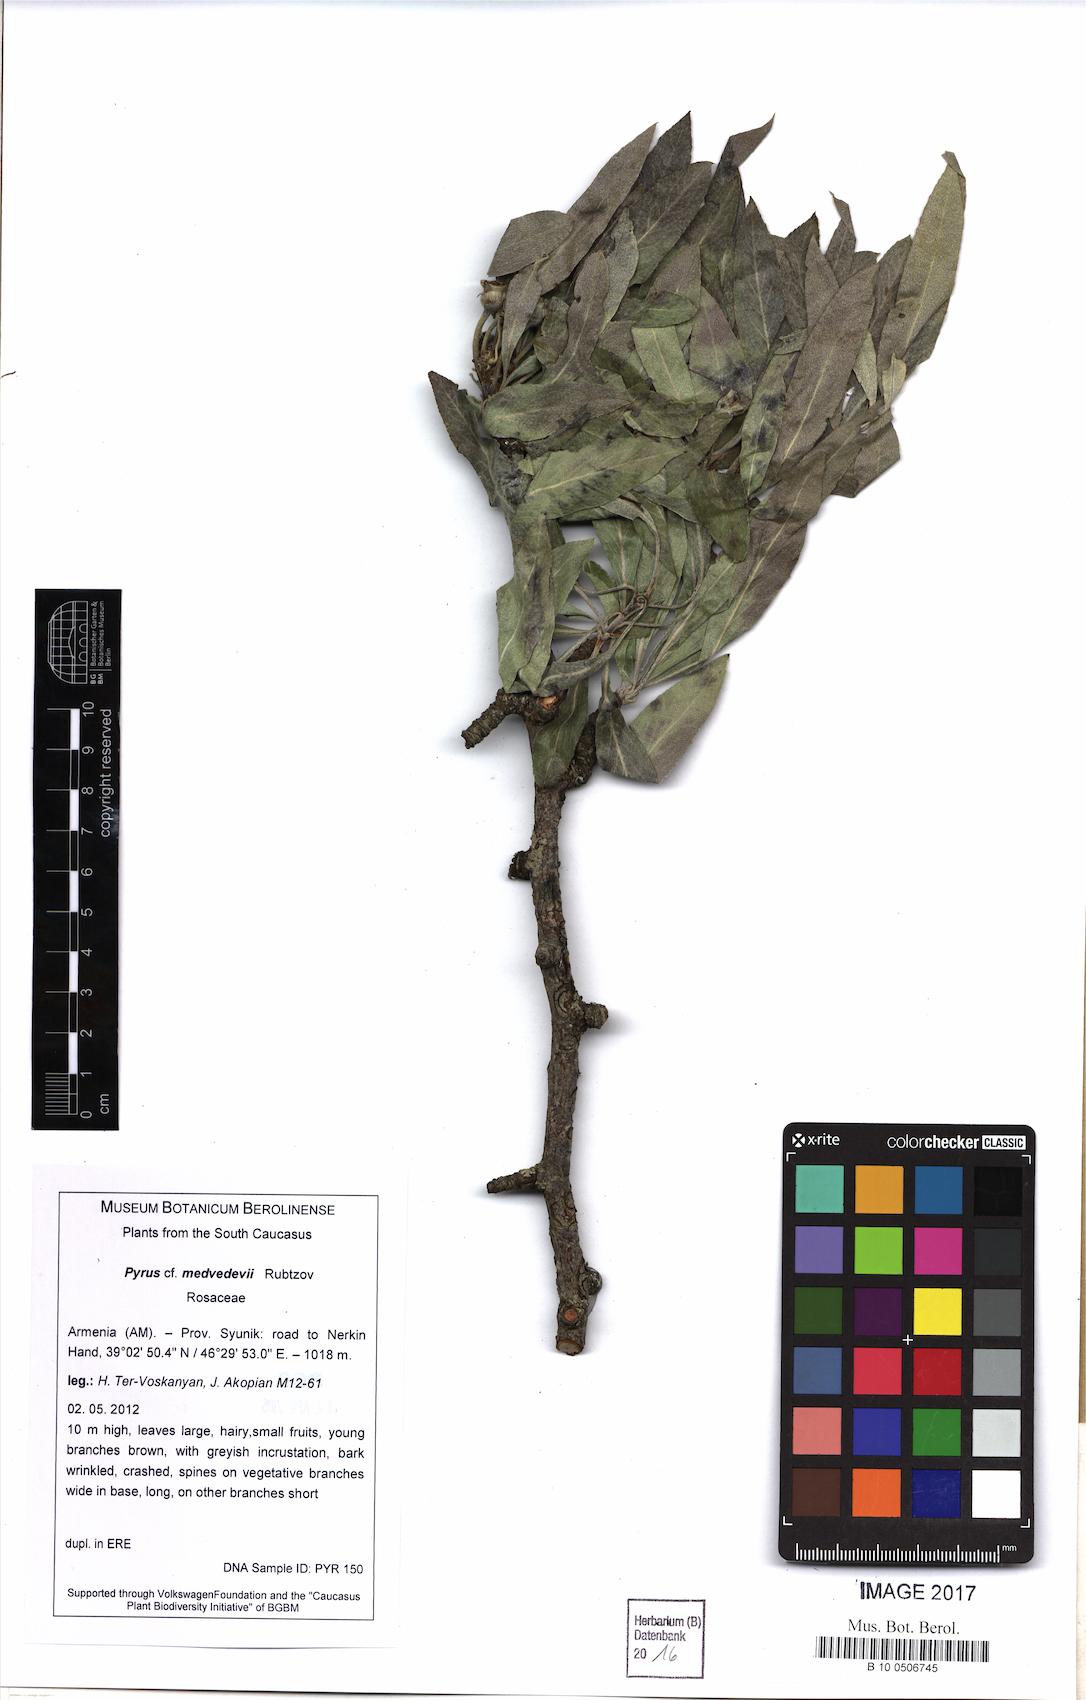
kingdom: Plantae
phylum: Tracheophyta
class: Magnoliopsida
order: Rosales
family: Rosaceae
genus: Pyrus
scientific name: Pyrus medvedevii
